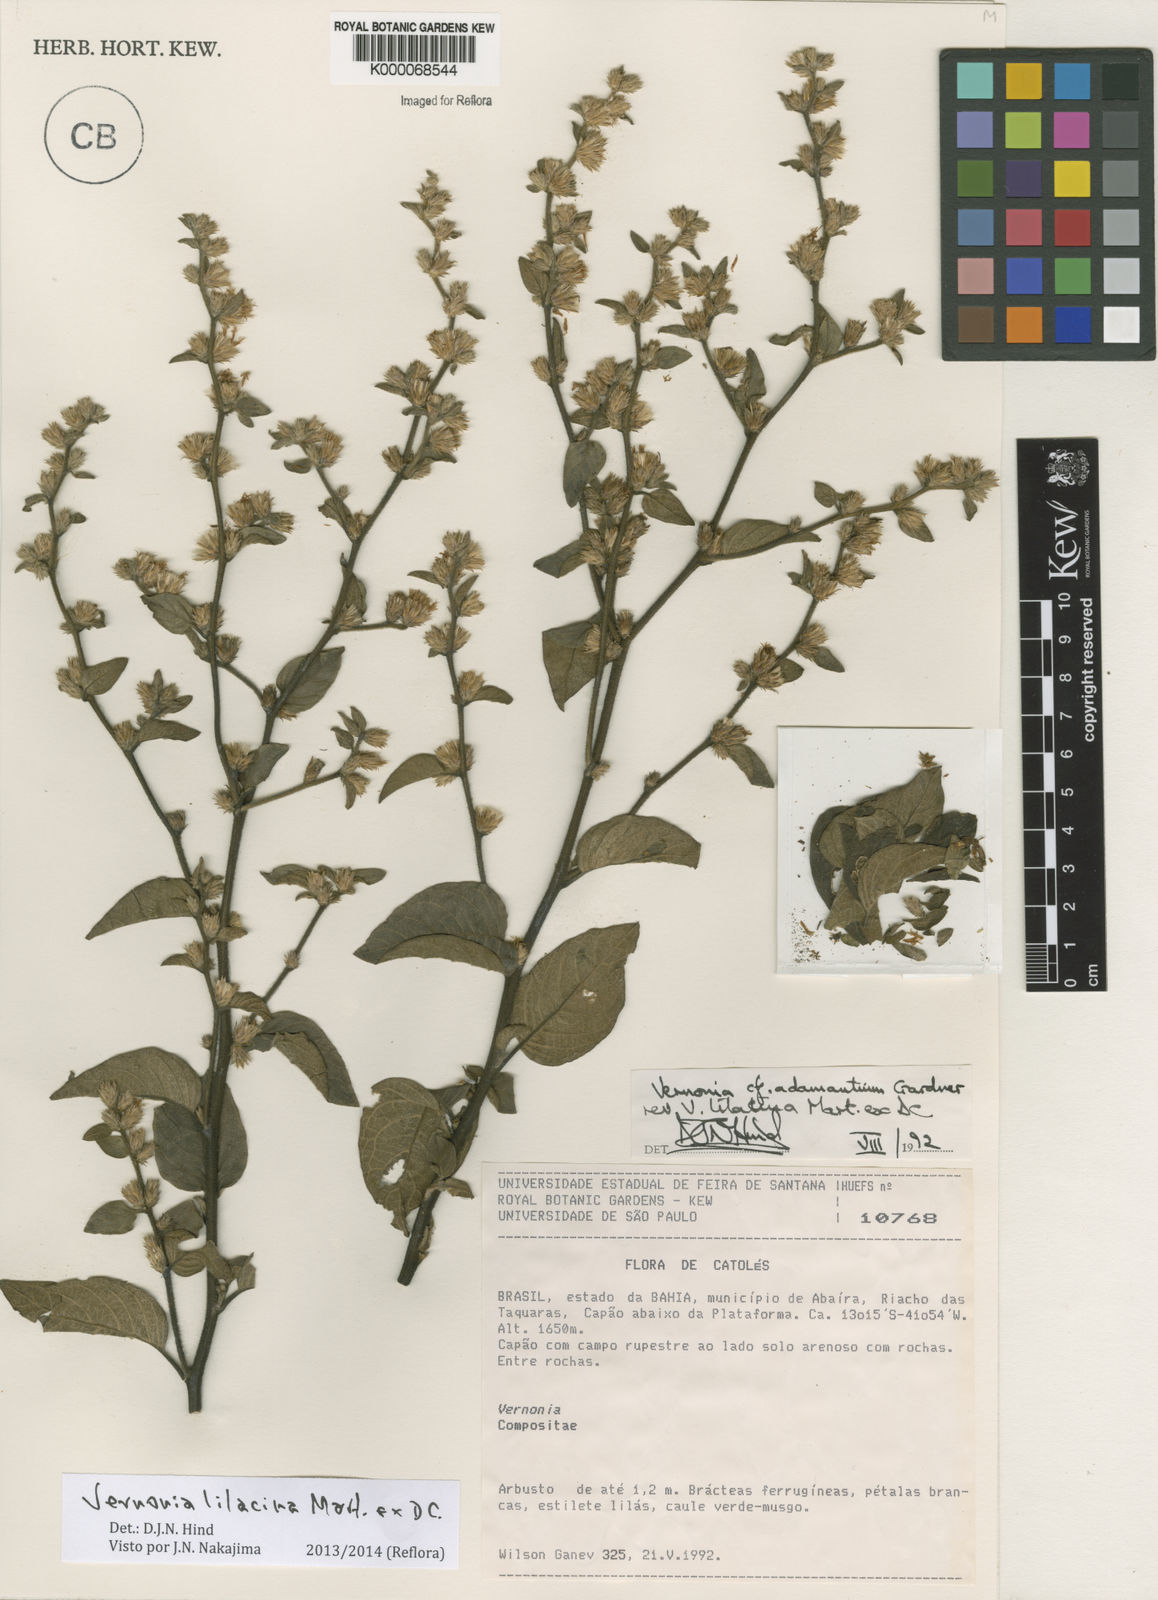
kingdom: Plantae
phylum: Tracheophyta
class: Magnoliopsida
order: Asterales
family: Asteraceae
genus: Lepidaploa
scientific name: Lepidaploa lilacina
